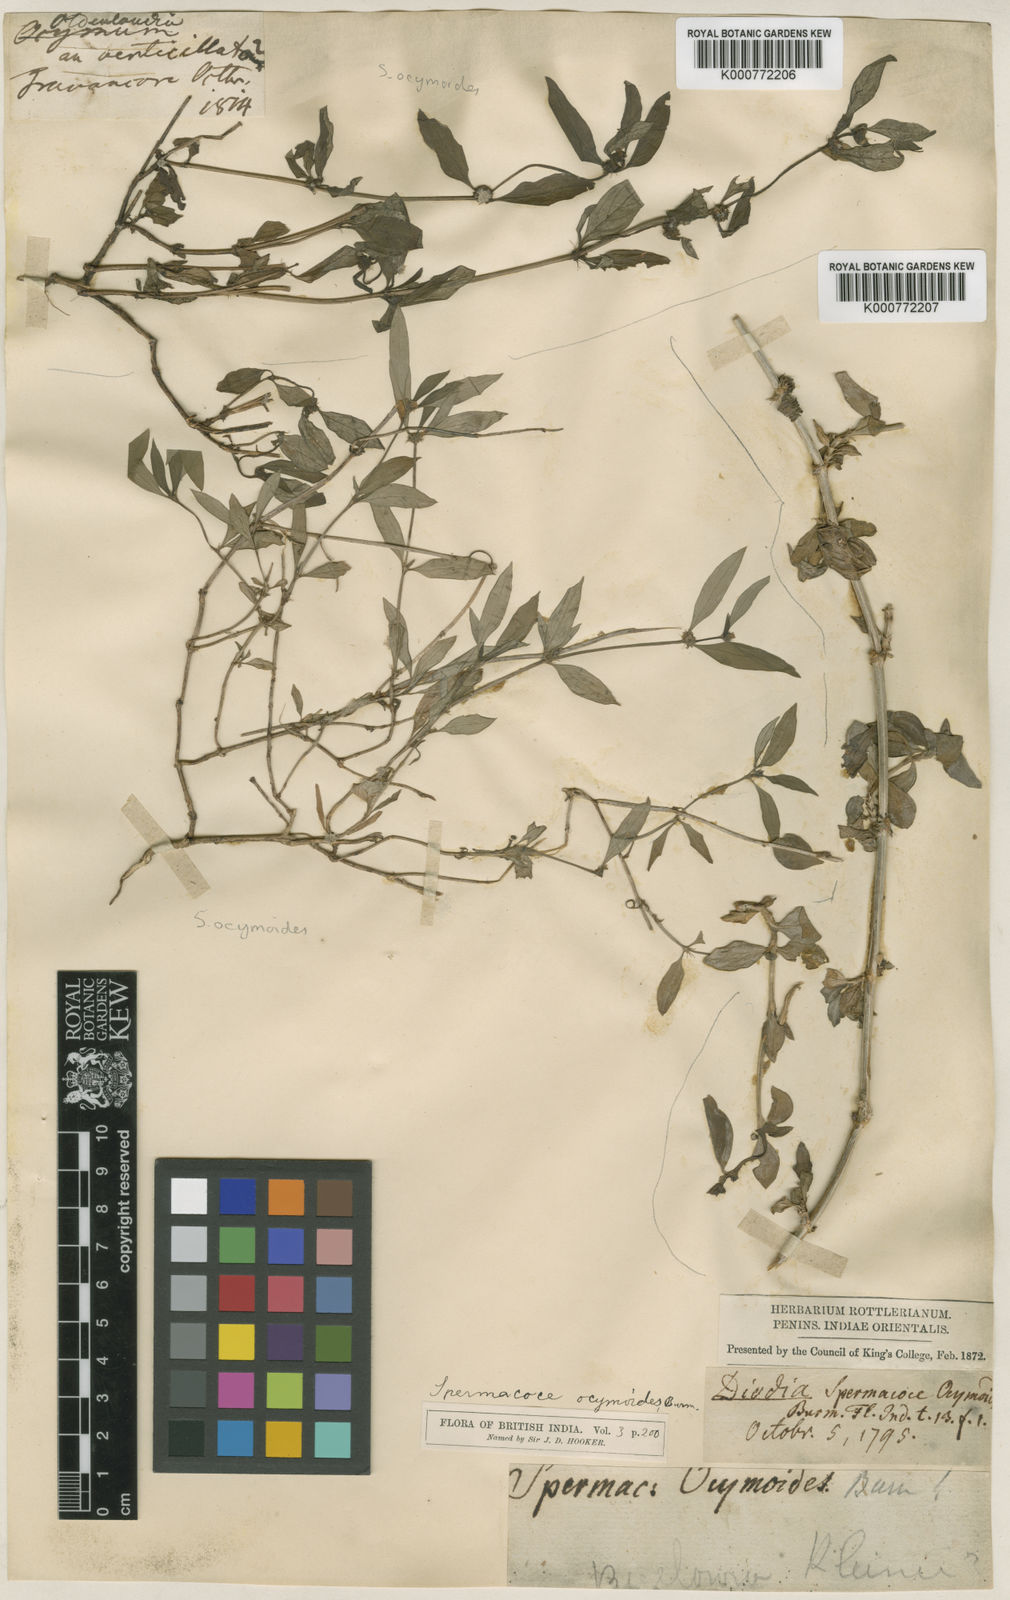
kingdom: Plantae
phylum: Tracheophyta
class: Magnoliopsida
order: Gentianales
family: Rubiaceae
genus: Spermacoce
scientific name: Spermacoce ocymoides
